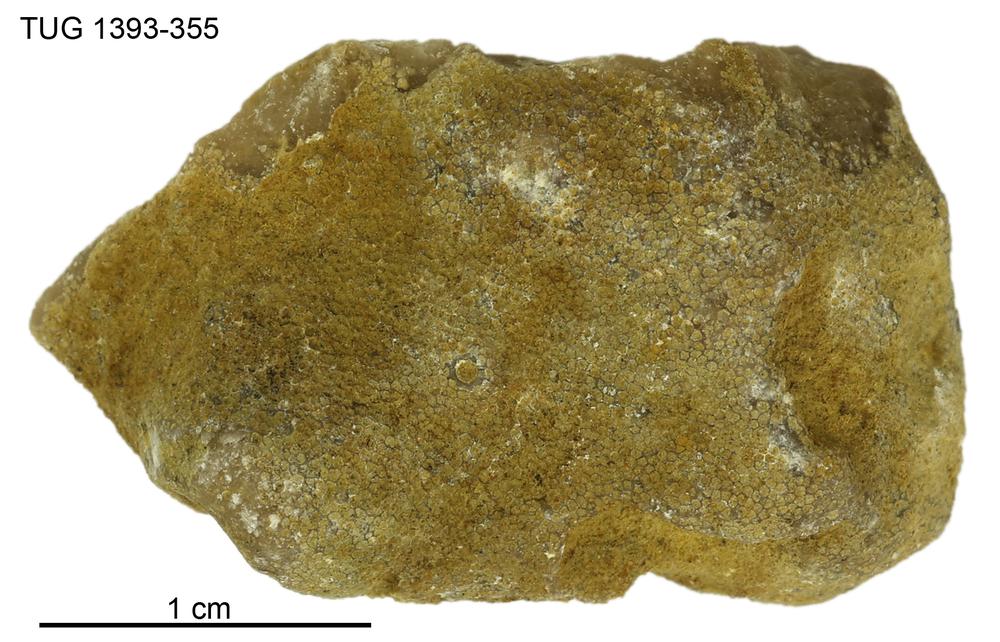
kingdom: Animalia
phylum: Bryozoa
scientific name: Bryozoa
